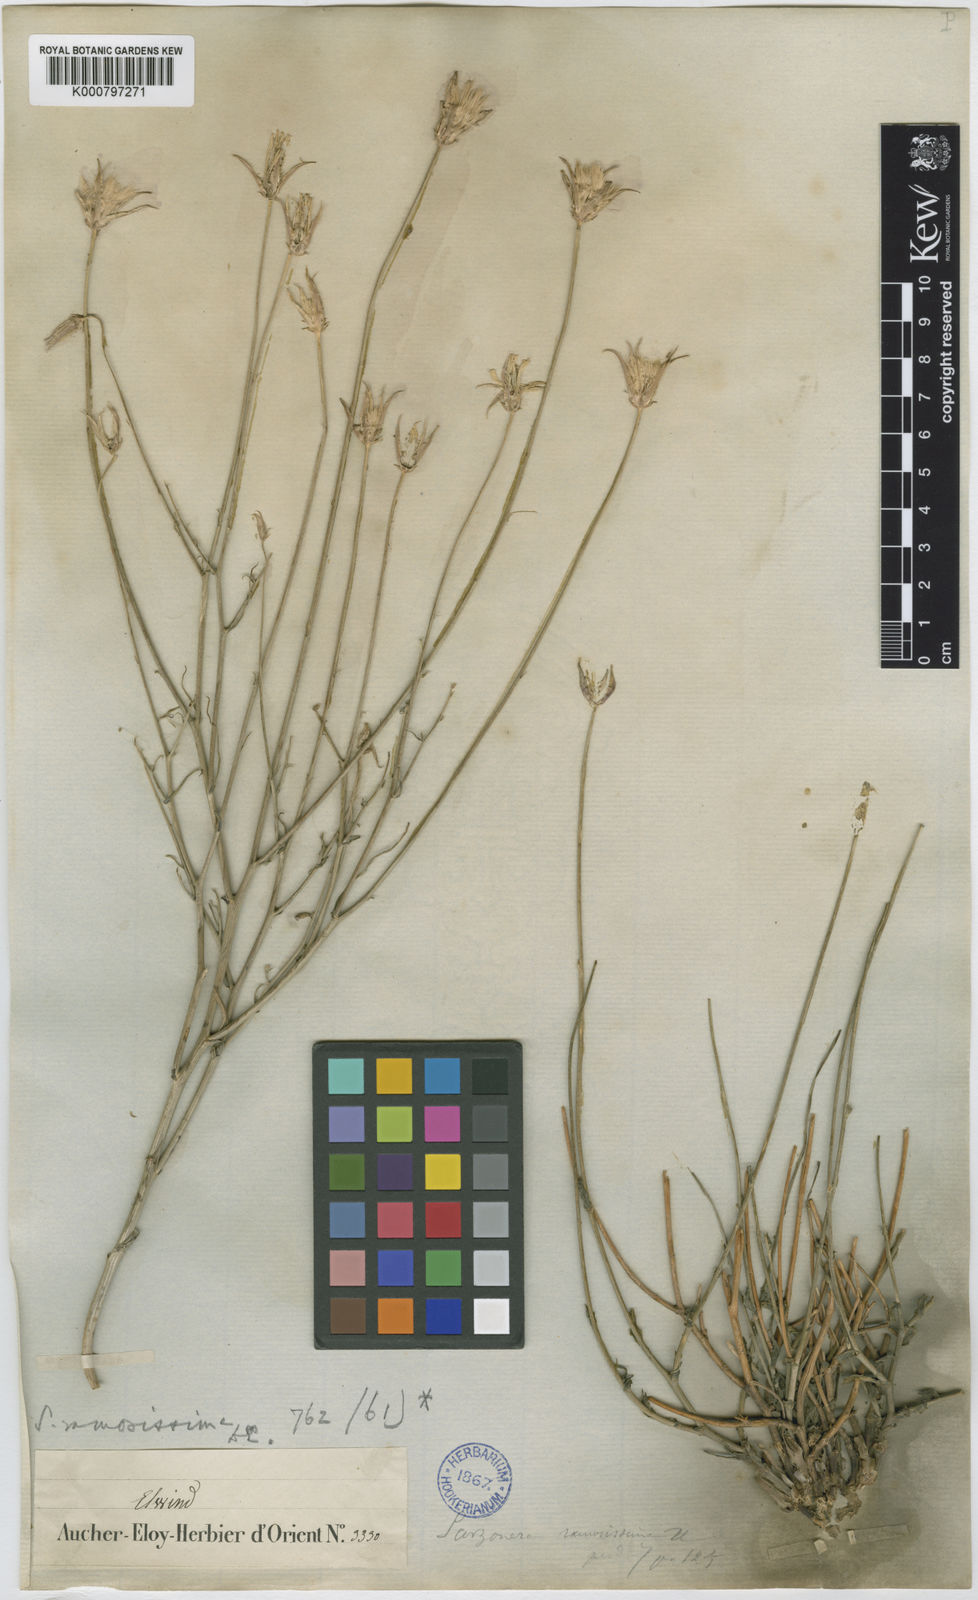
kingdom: Plantae
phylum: Tracheophyta
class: Magnoliopsida
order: Asterales
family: Asteraceae
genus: Gelasia
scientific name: Gelasia ramosissima
